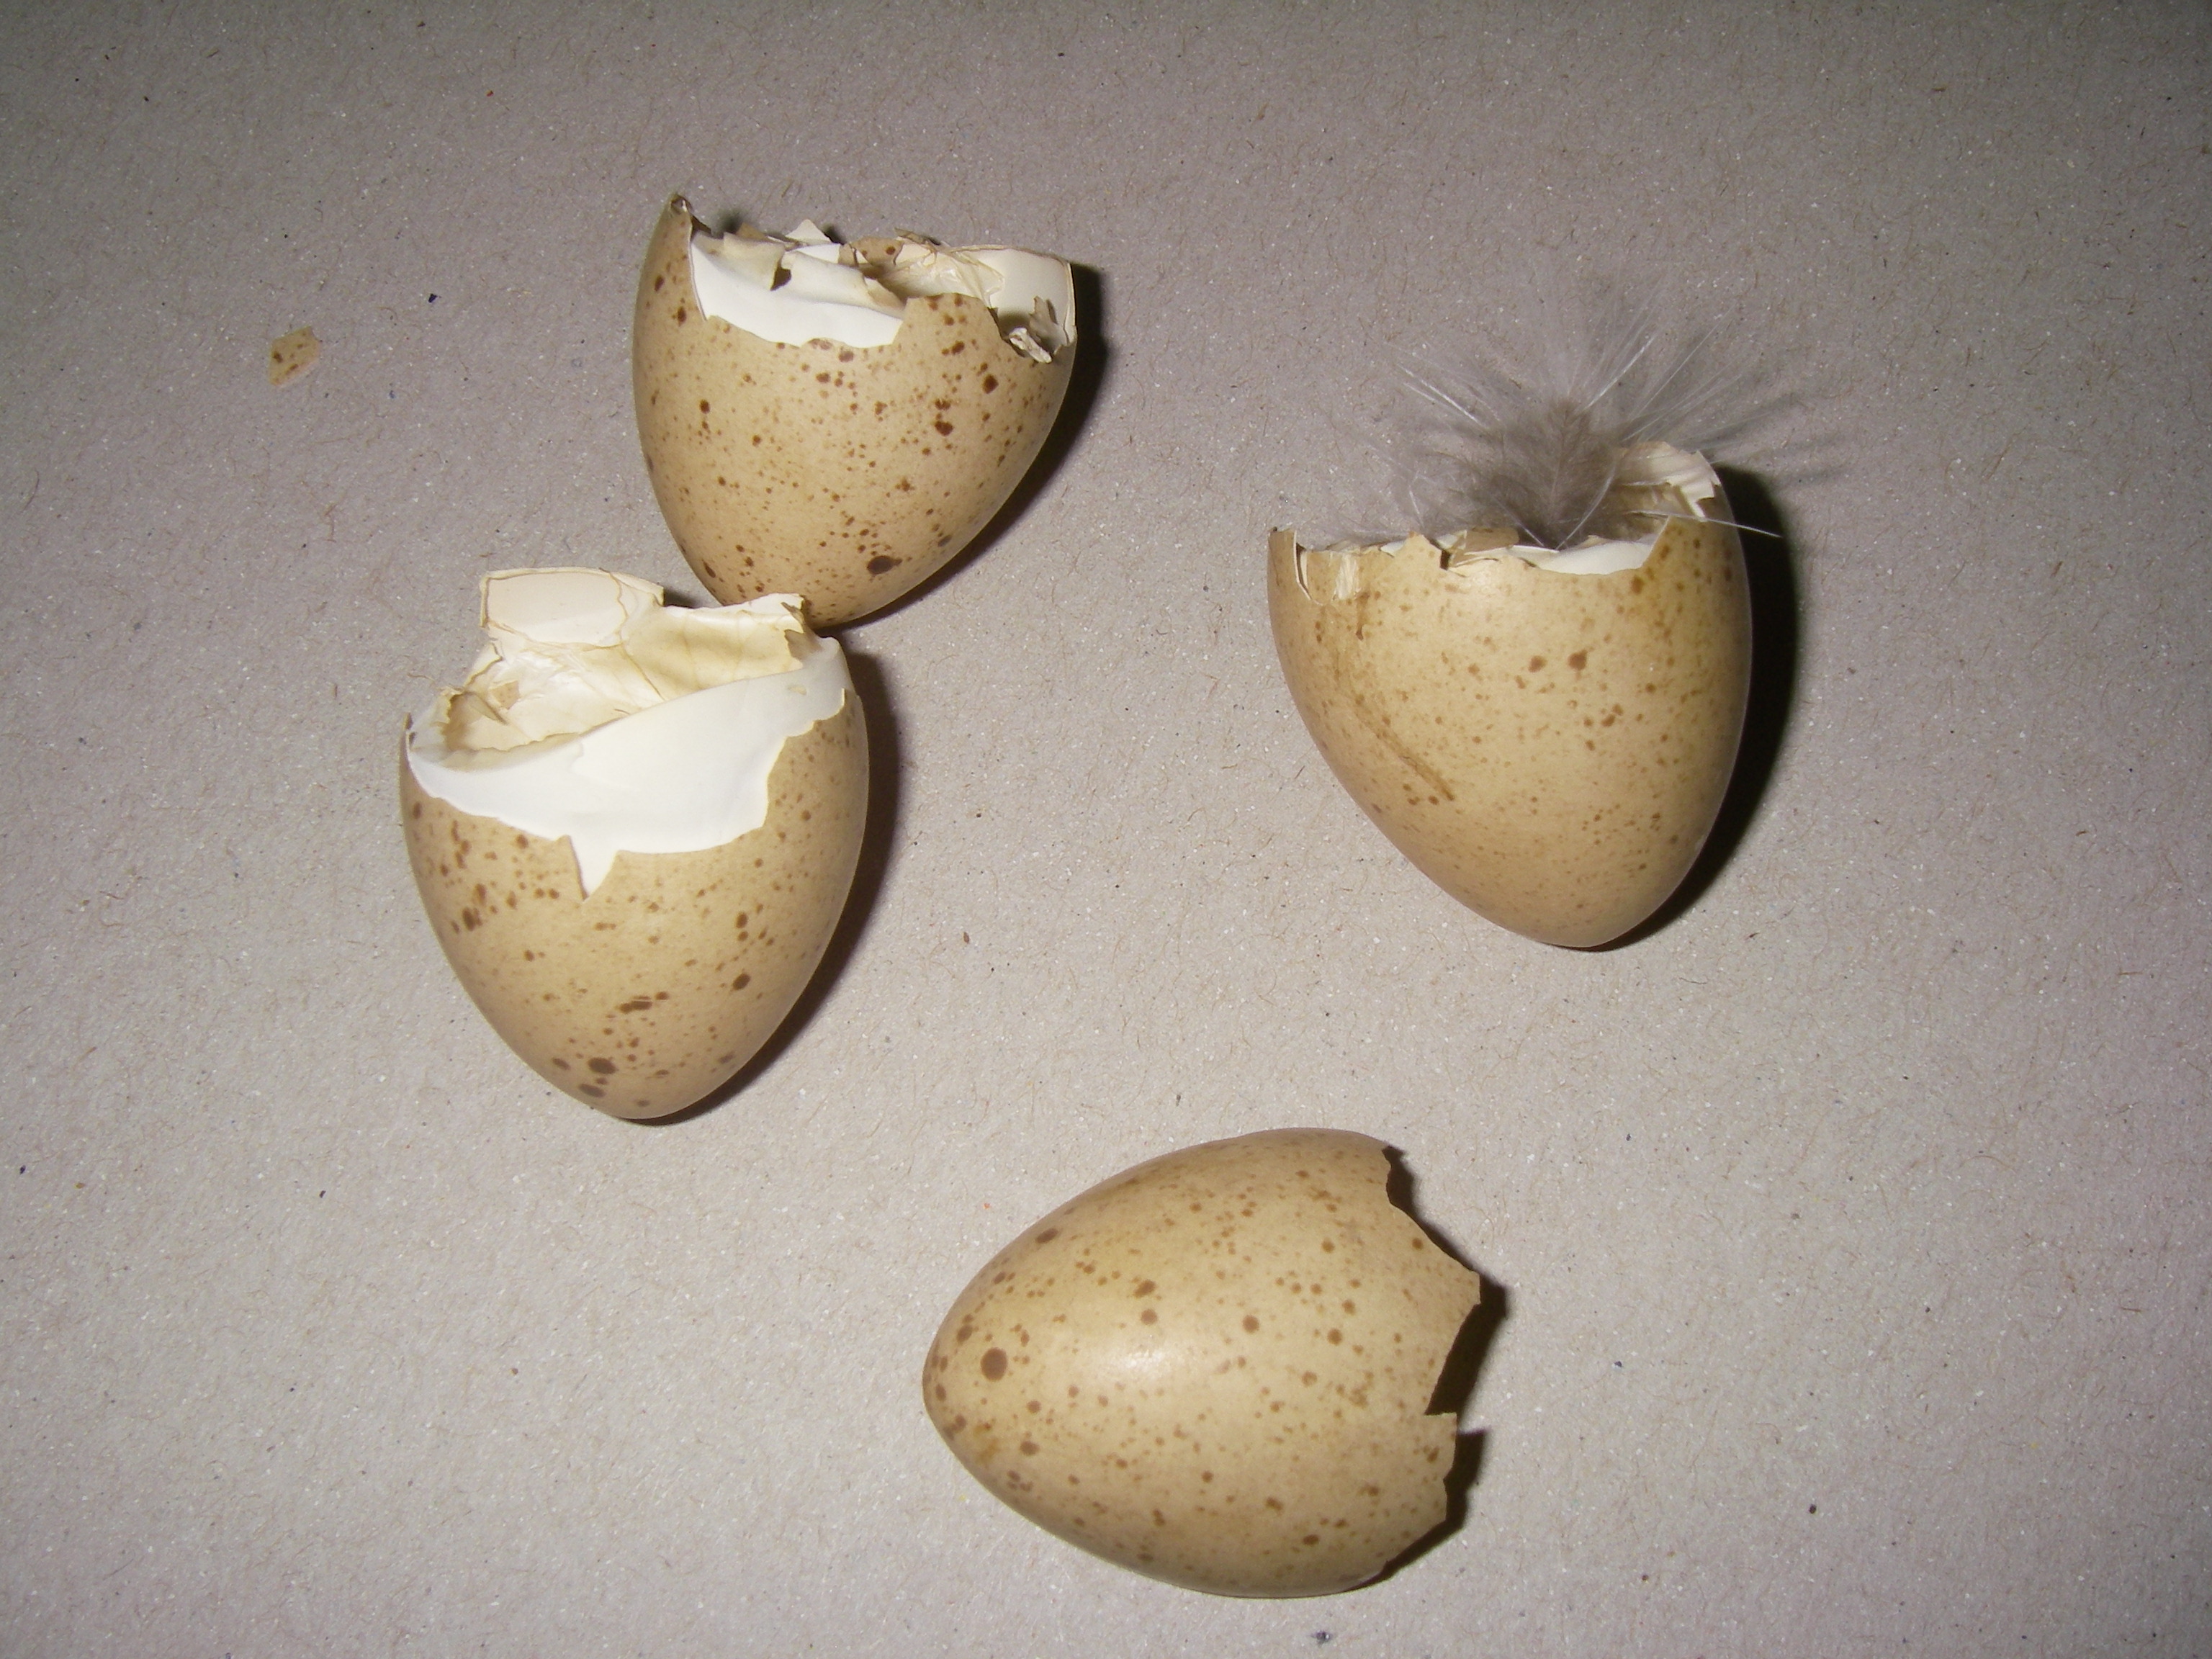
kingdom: Animalia
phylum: Chordata
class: Aves
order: Galliformes
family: Phasianidae
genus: Tetrastes
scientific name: Tetrastes bonasia
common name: Hazel grouse
